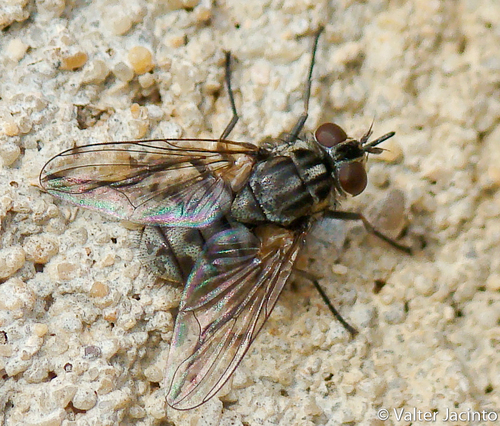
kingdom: Animalia
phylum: Arthropoda
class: Insecta
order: Diptera
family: Muscidae
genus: Stomoxys
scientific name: Stomoxys calcitrans
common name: Stable fly
